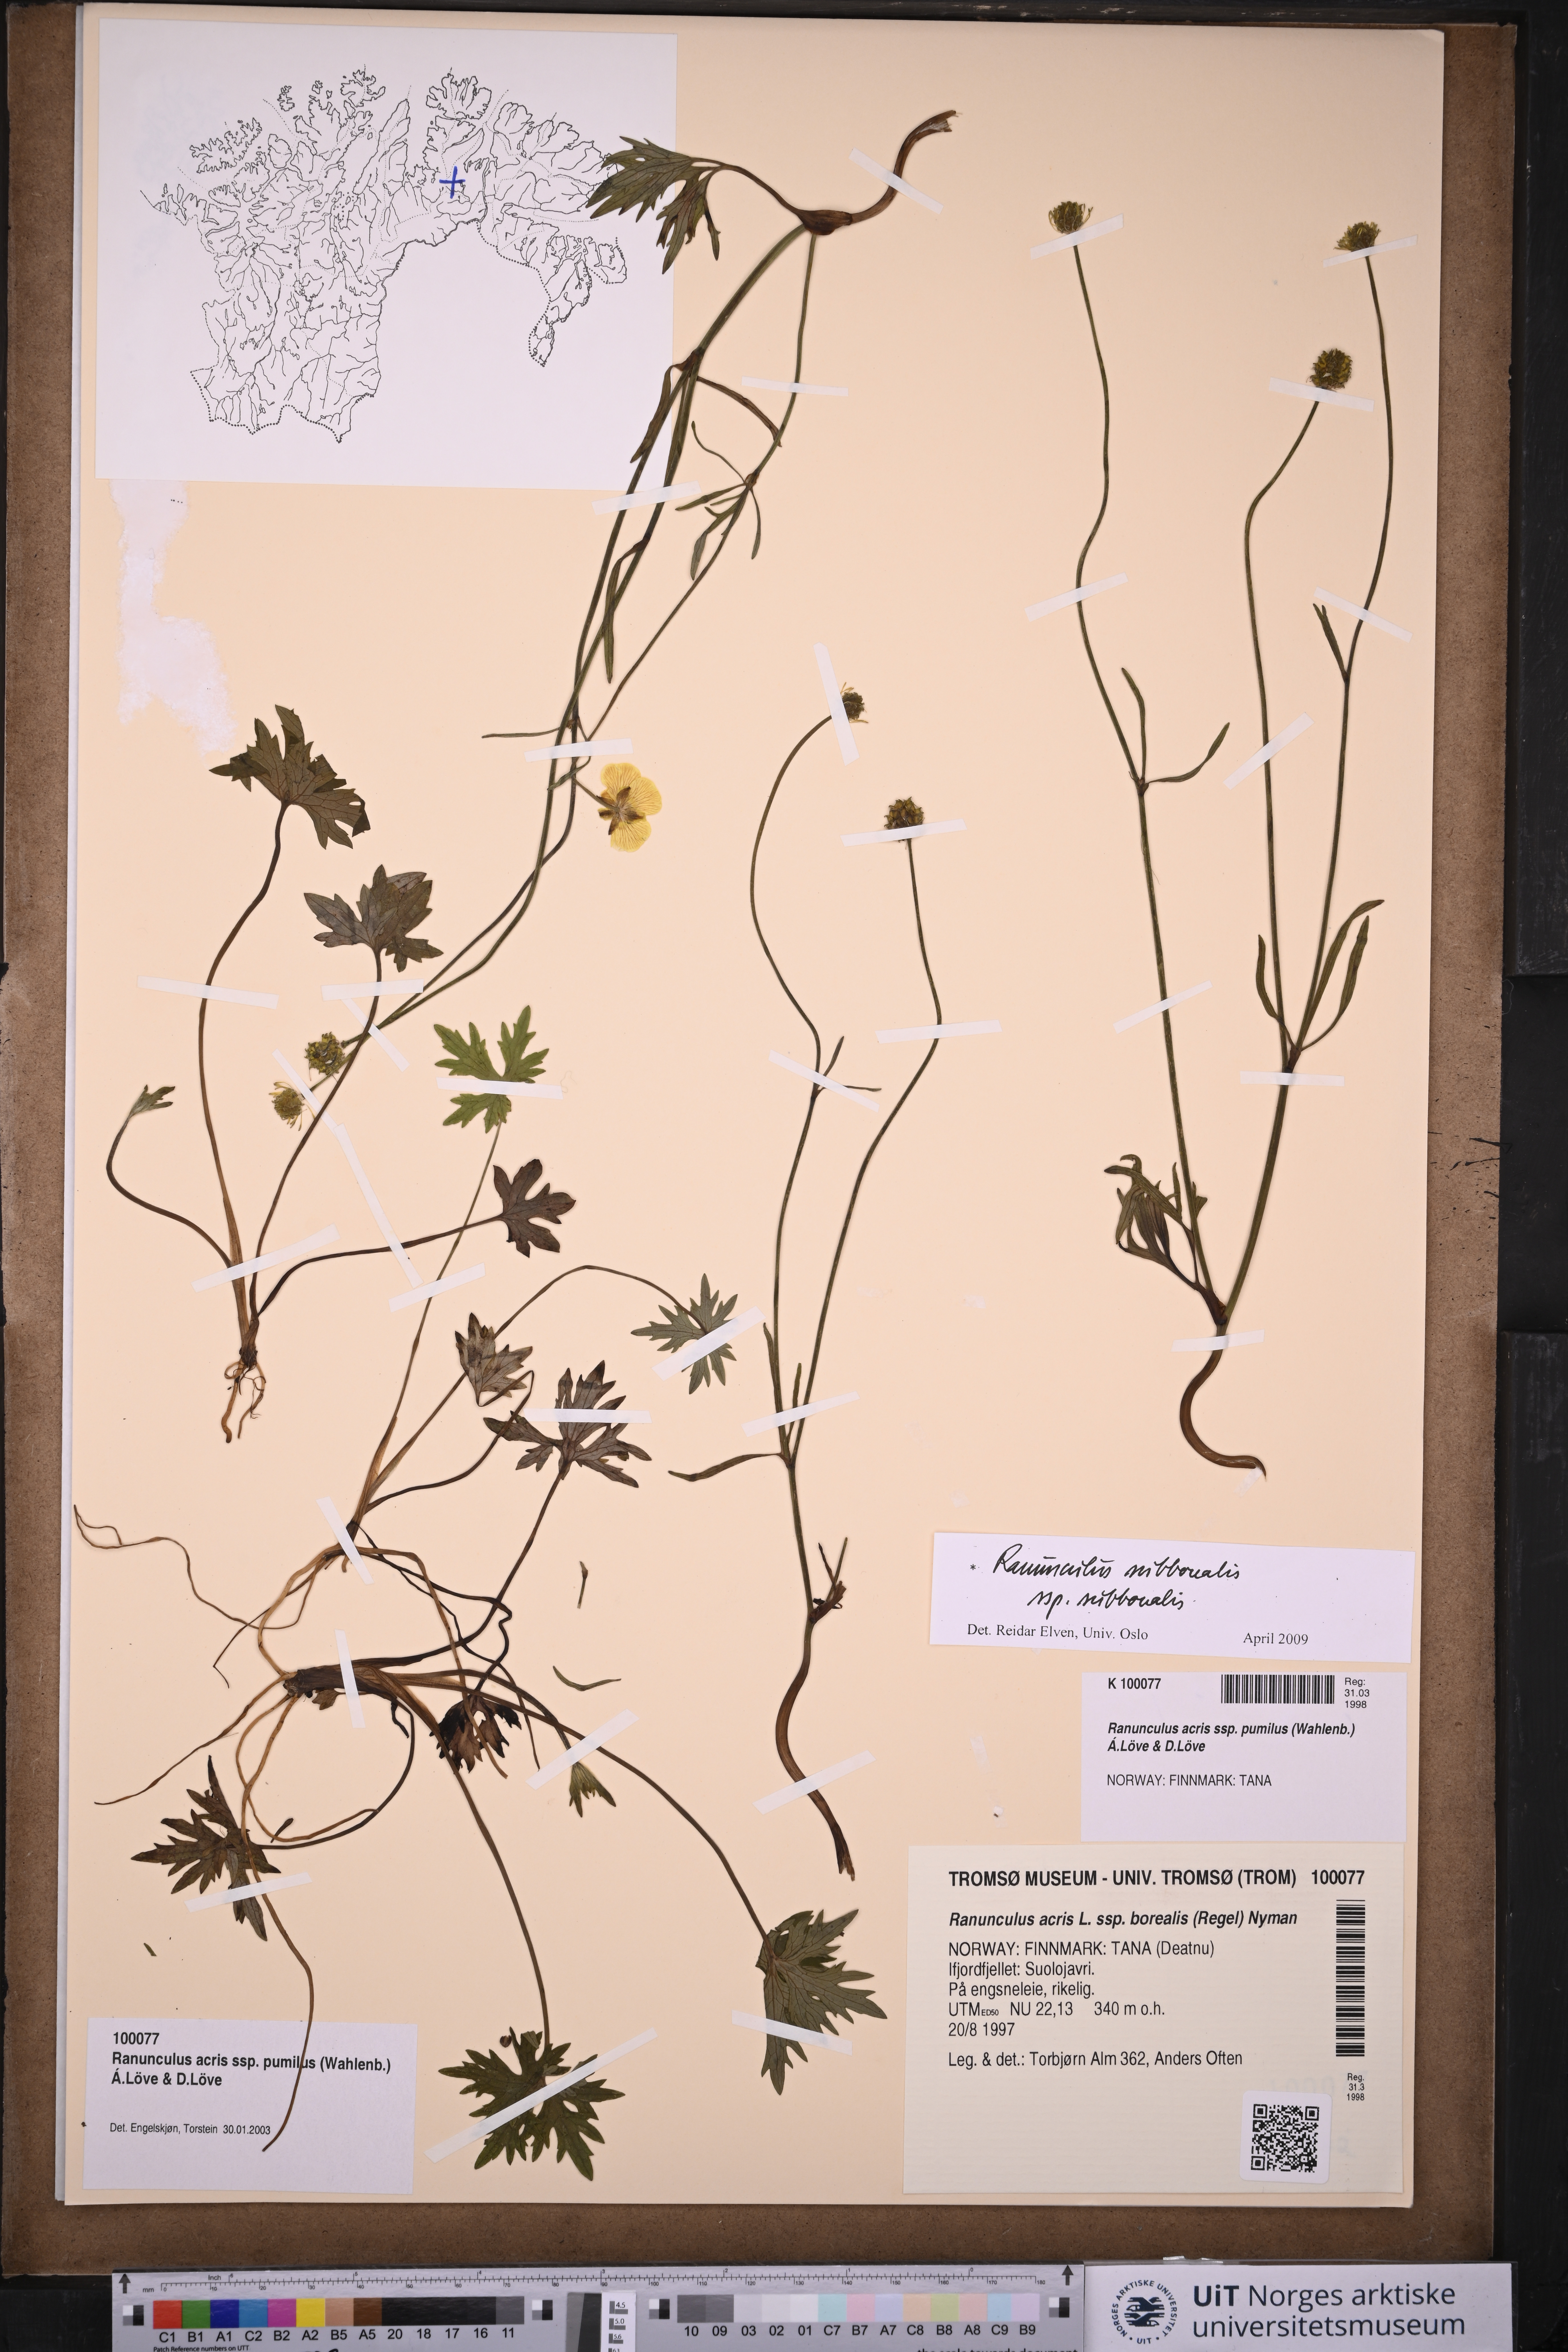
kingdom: Plantae
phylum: Tracheophyta
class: Magnoliopsida
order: Ranunculales
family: Ranunculaceae
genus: Ranunculus
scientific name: Ranunculus propinquus
